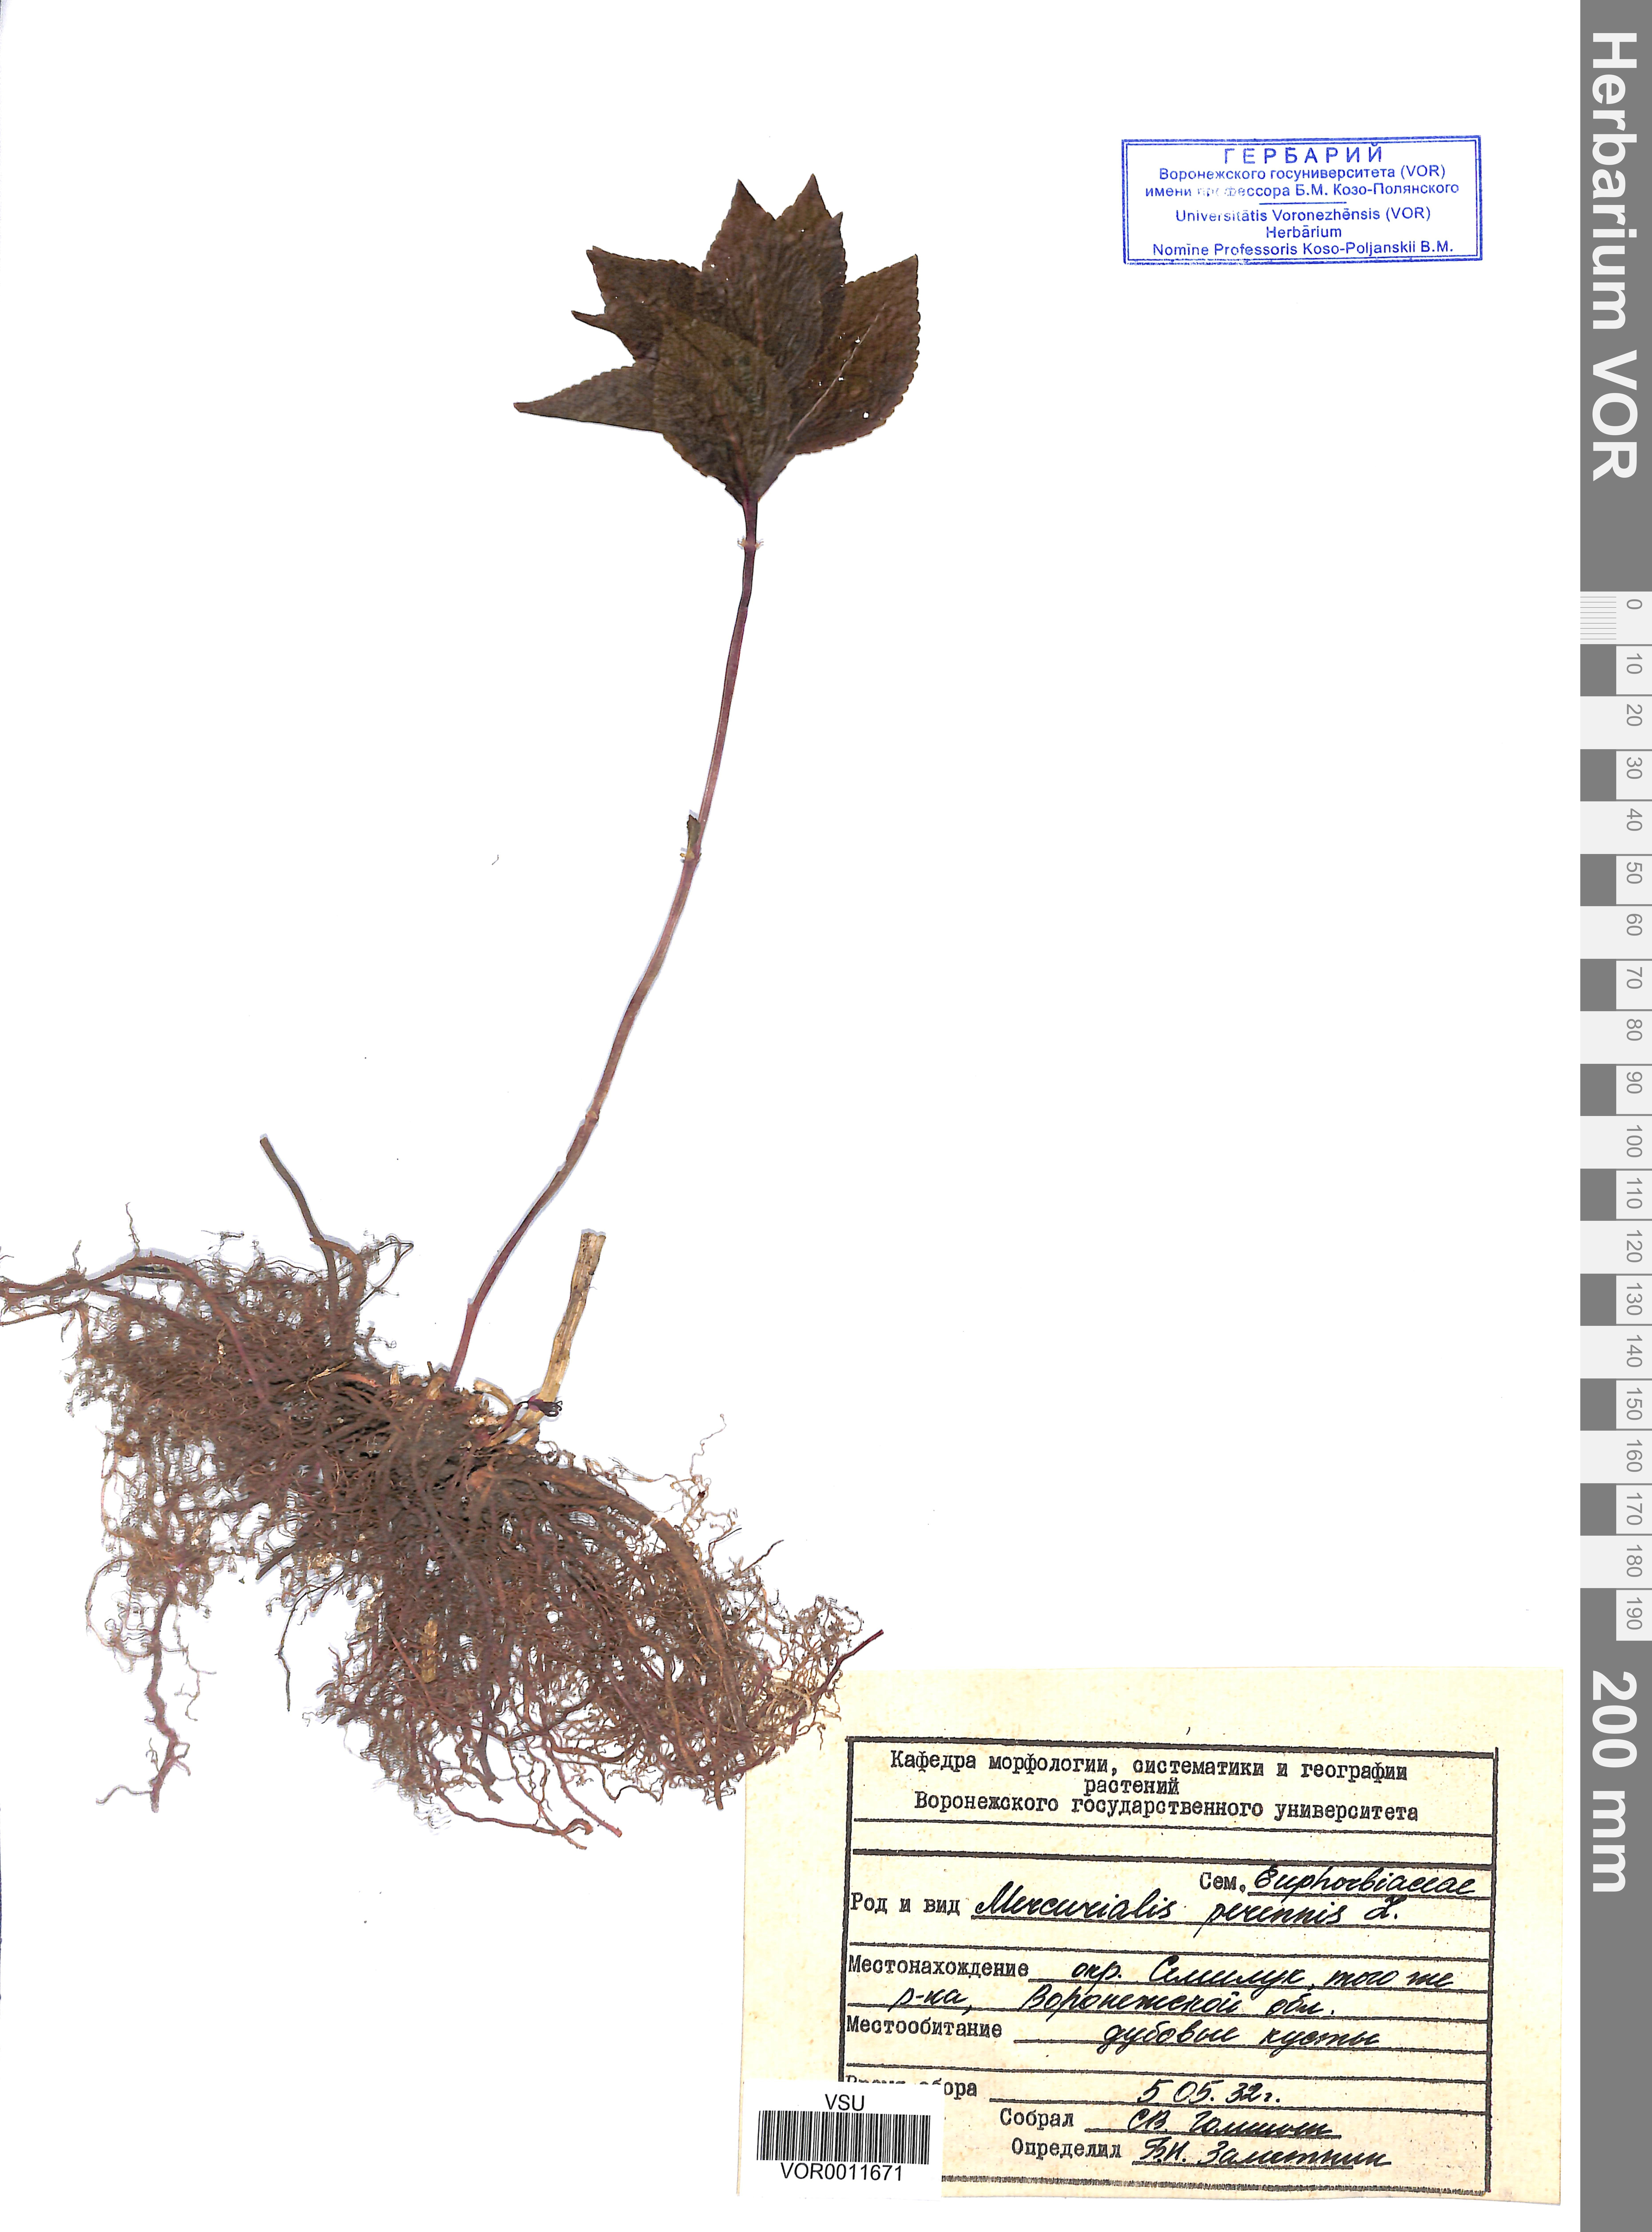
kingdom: Plantae
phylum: Tracheophyta
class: Magnoliopsida
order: Malpighiales
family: Euphorbiaceae
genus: Mercurialis
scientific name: Mercurialis perennis
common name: Dog mercury
